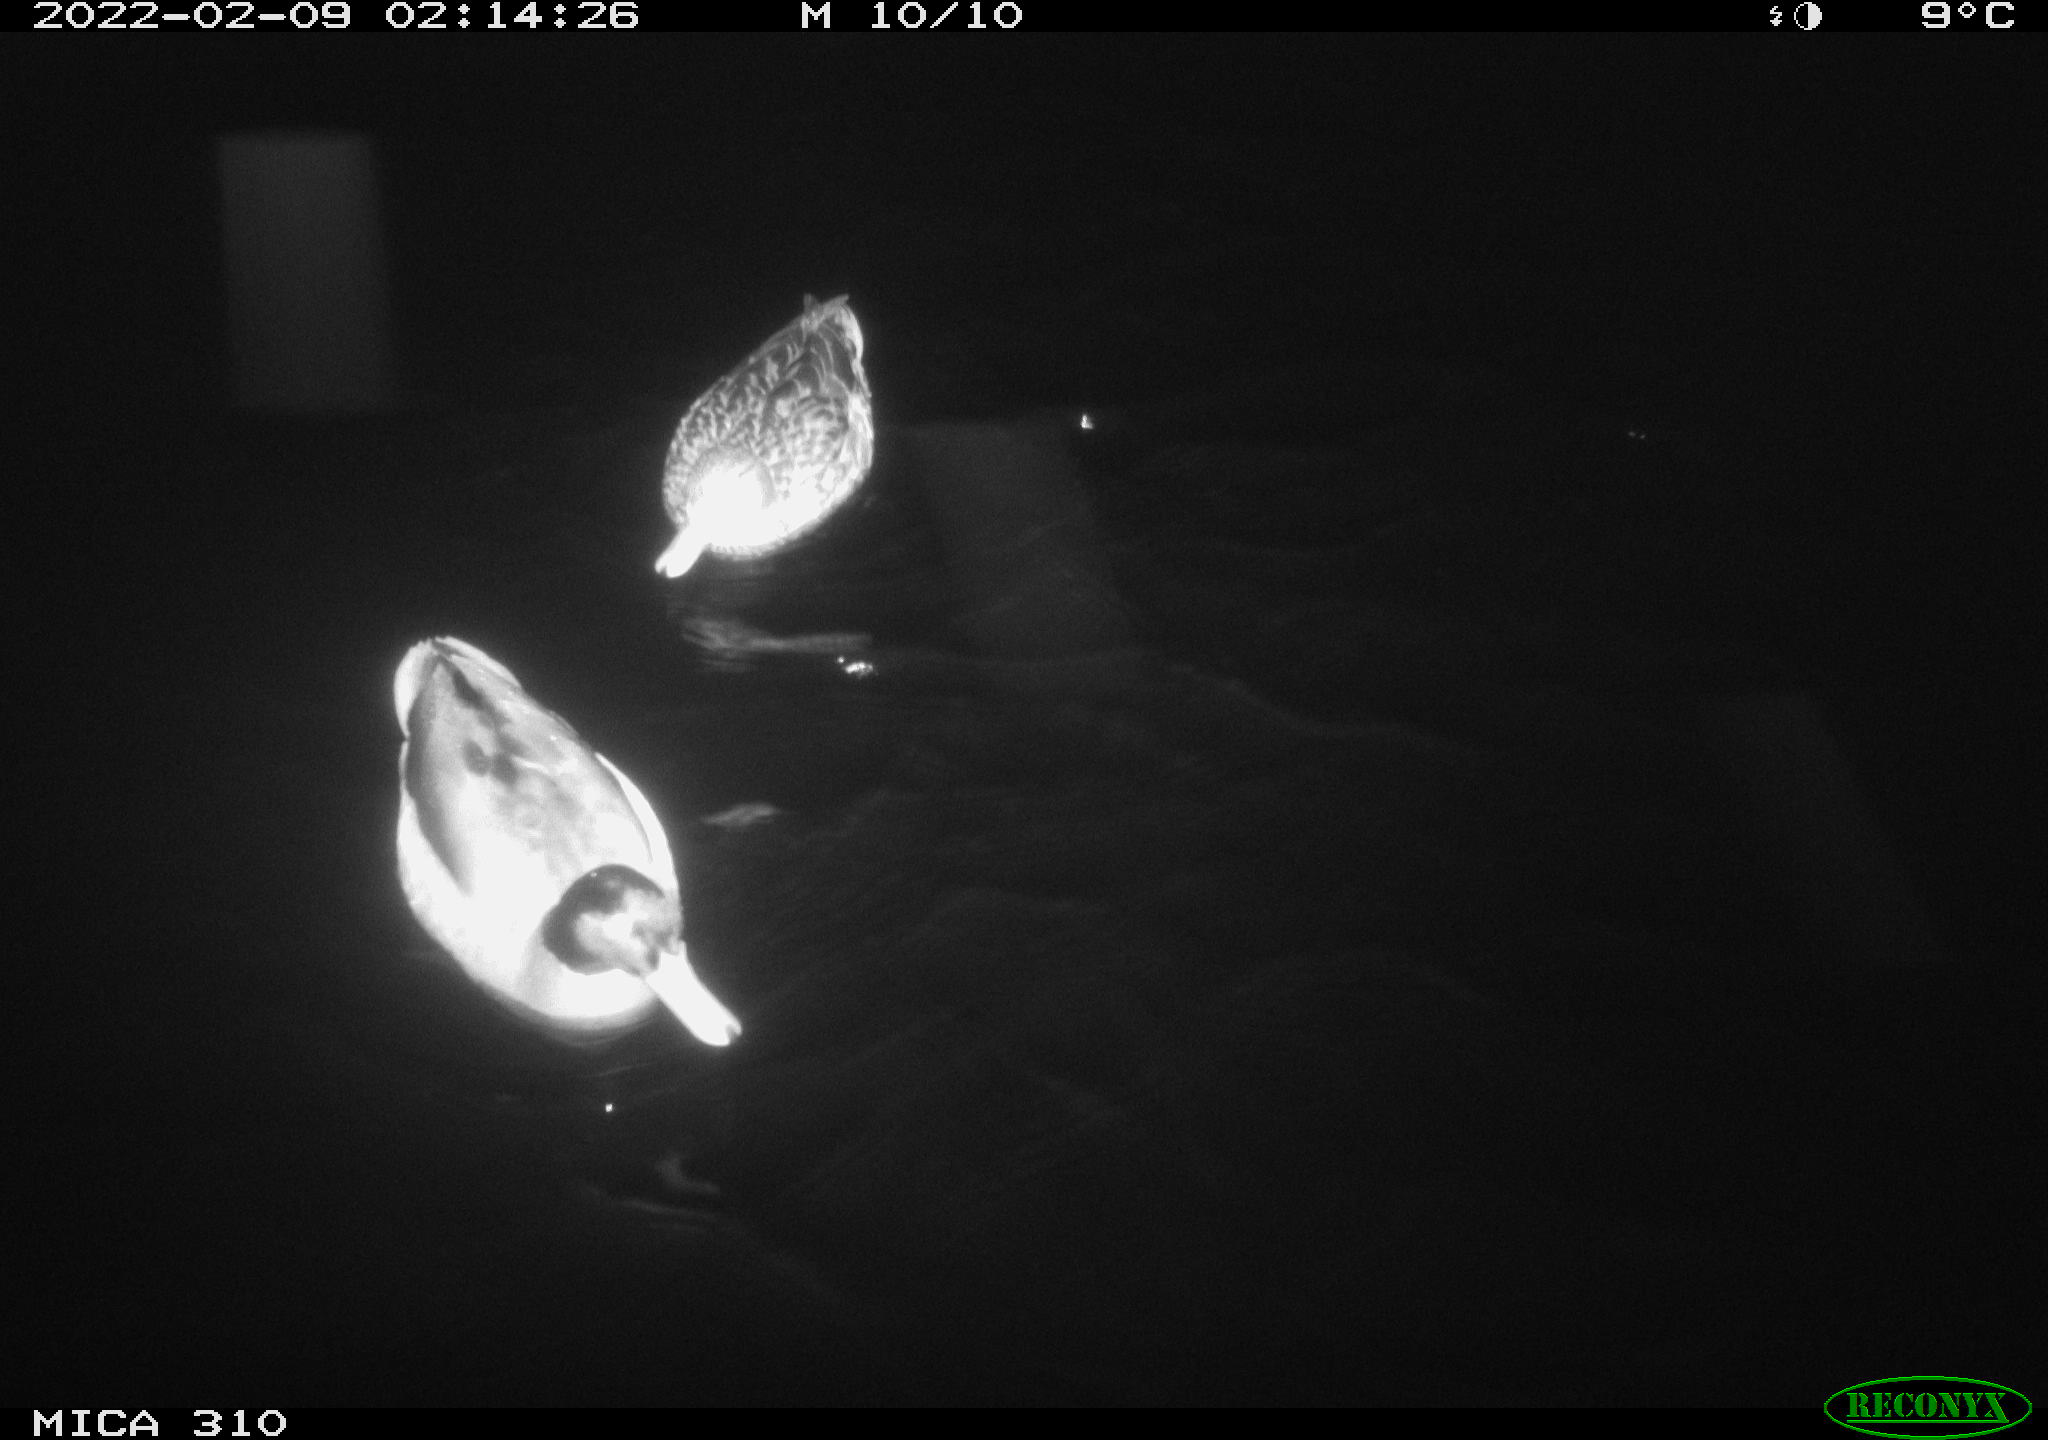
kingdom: Animalia
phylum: Chordata
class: Aves
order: Anseriformes
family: Anatidae
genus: Anas
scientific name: Anas platyrhynchos
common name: Mallard
